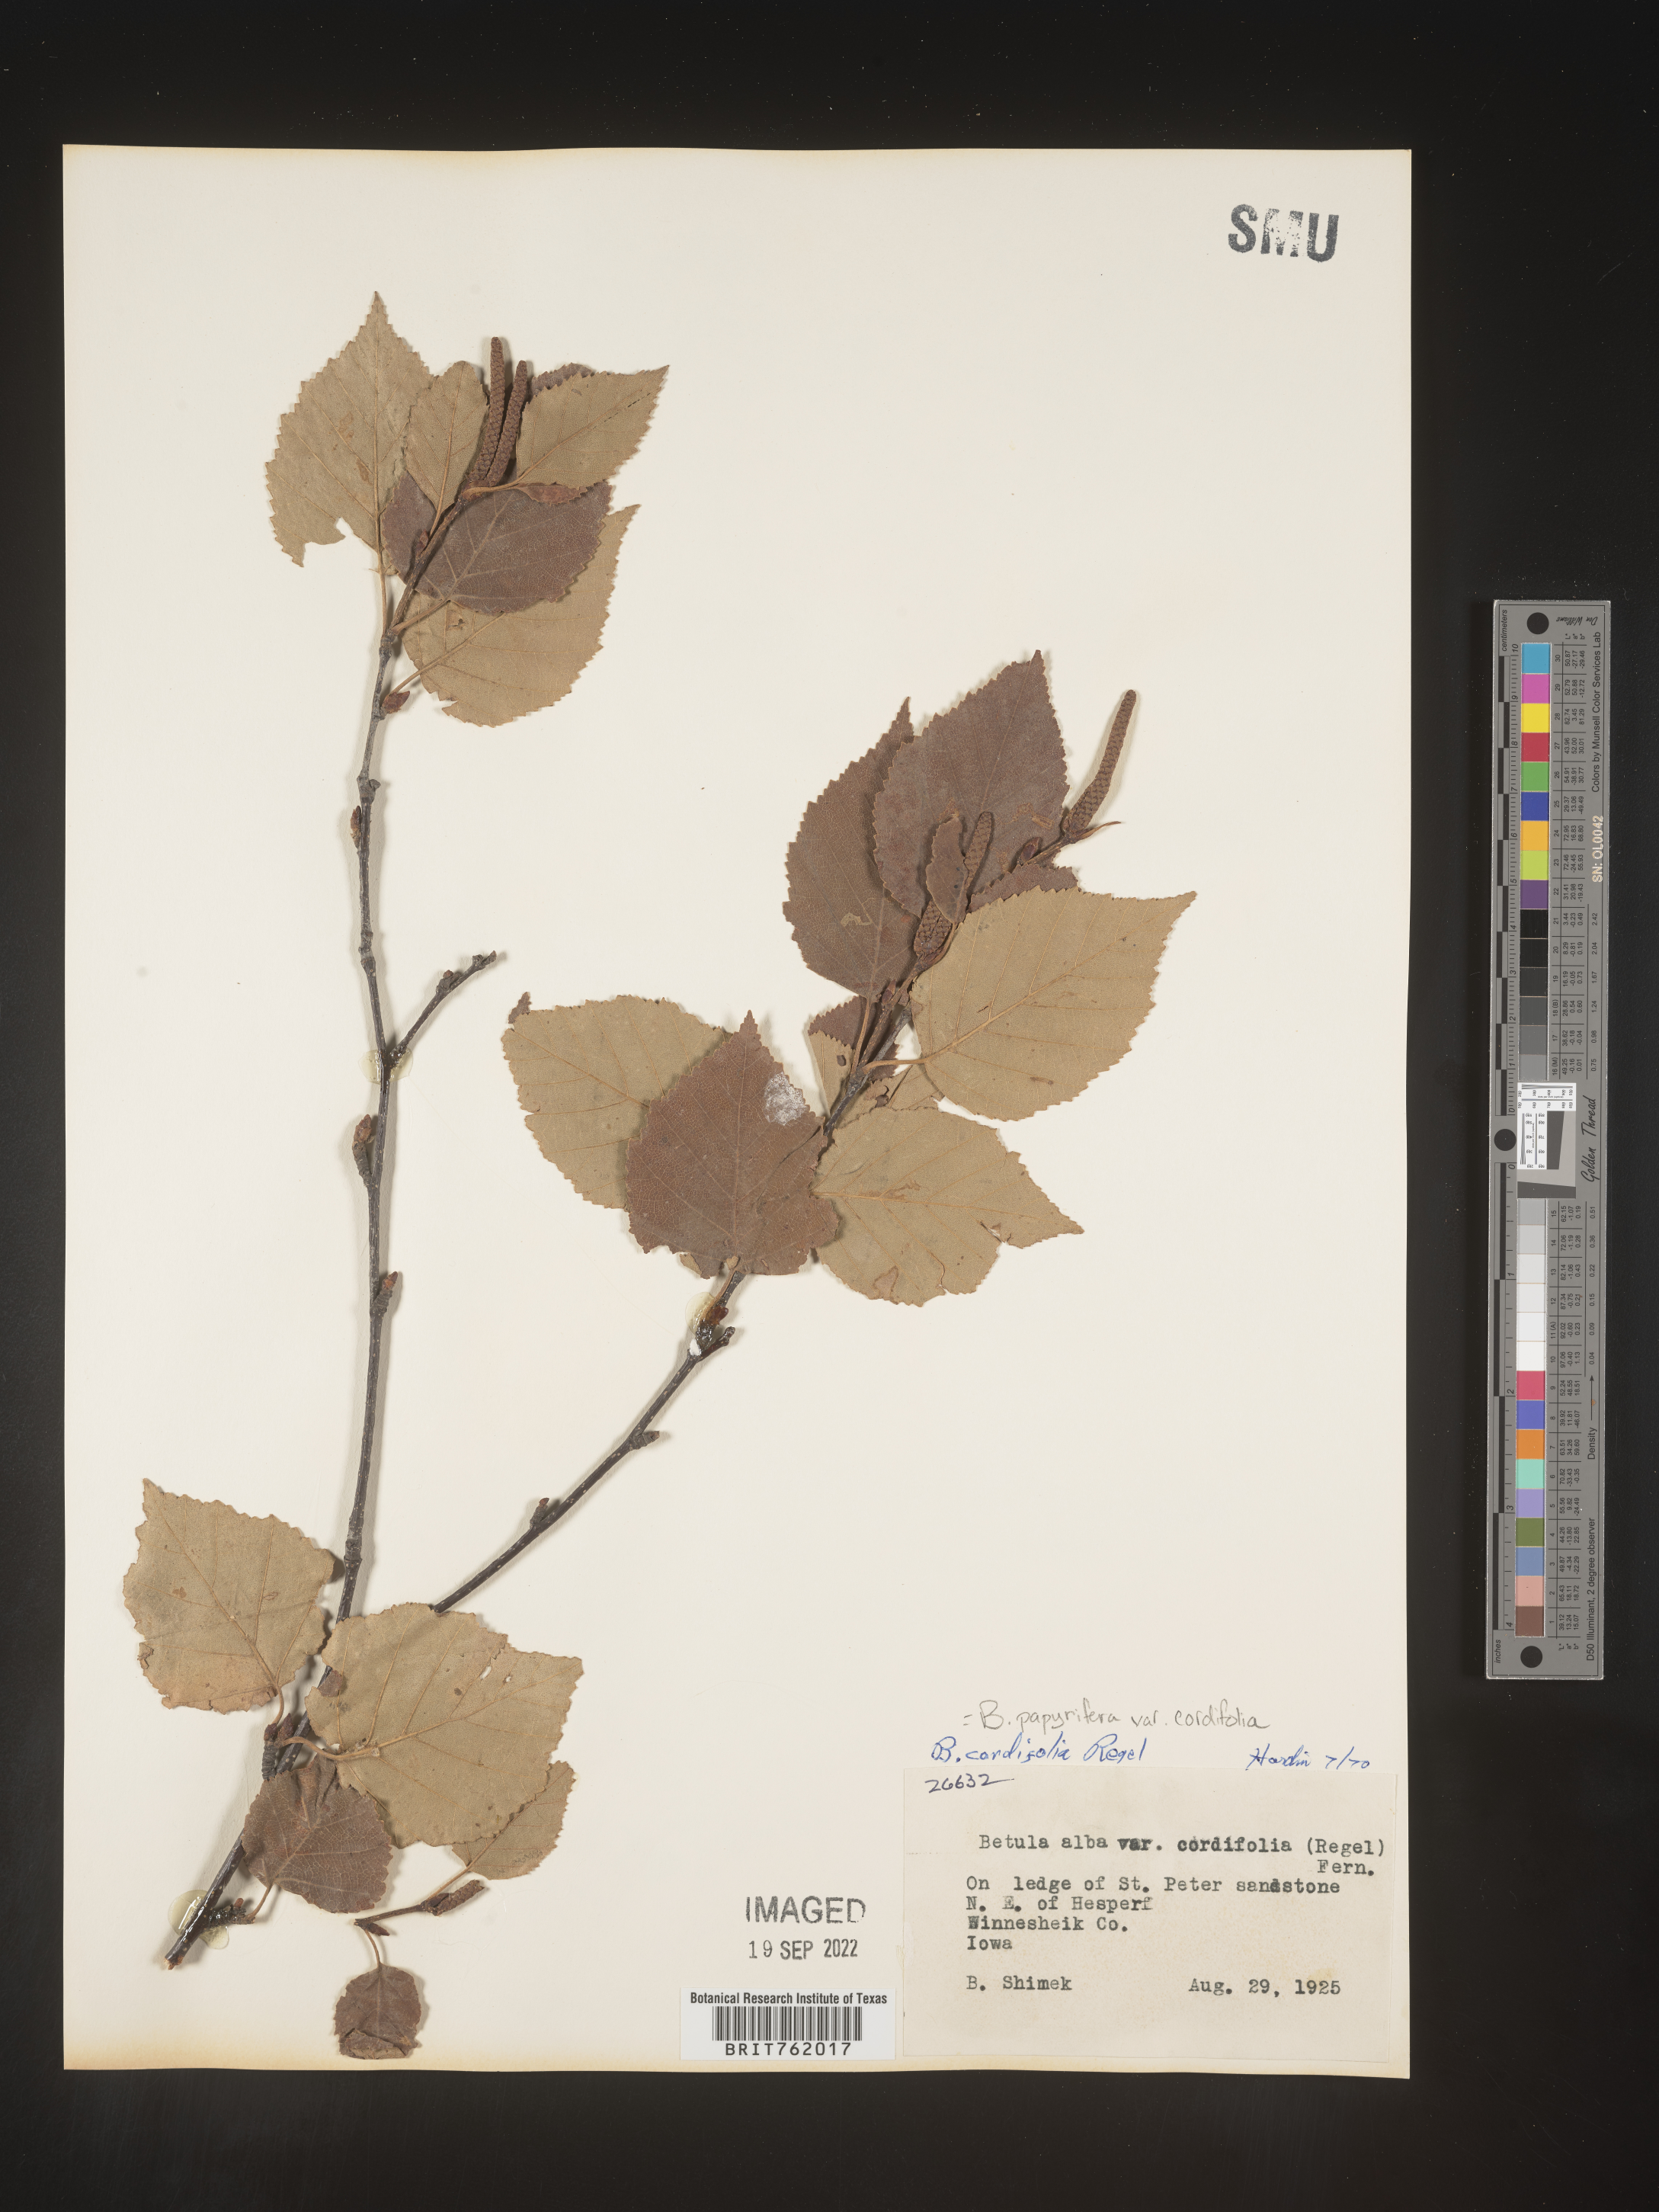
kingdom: Plantae
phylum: Tracheophyta
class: Magnoliopsida
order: Fagales
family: Betulaceae
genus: Betula
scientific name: Betula papyrifera
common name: Paper birch
